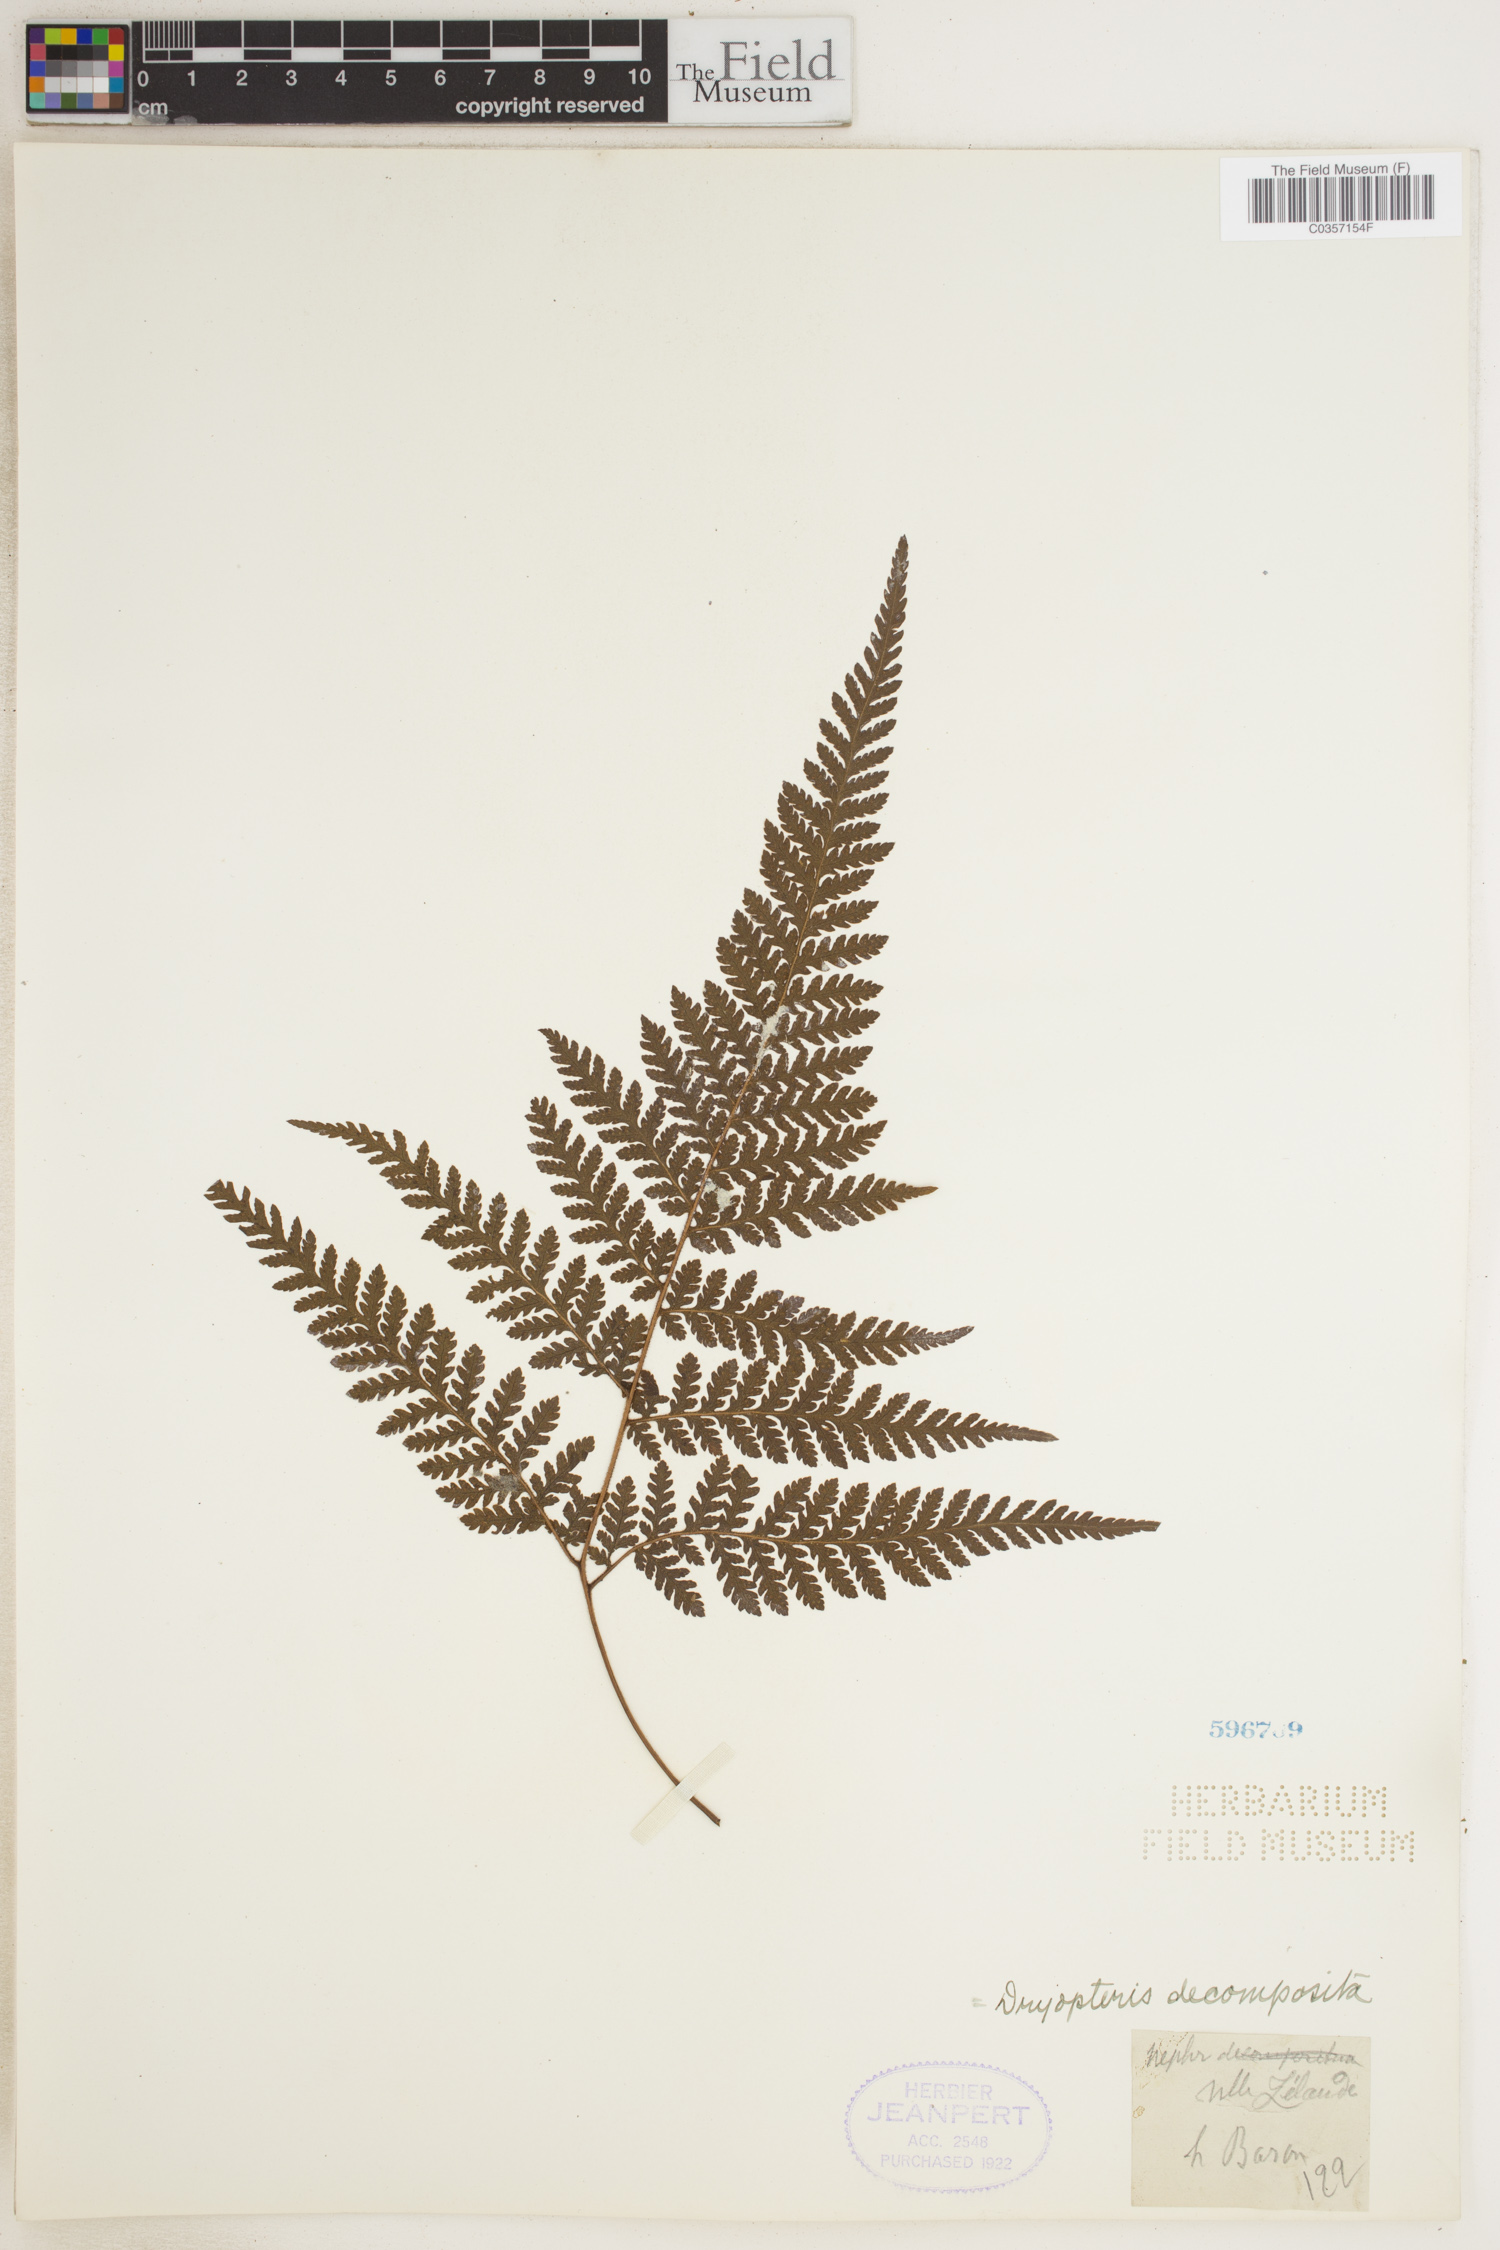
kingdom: Plantae
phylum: Tracheophyta
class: Polypodiopsida
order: Polypodiales
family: Dryopteridaceae
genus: Lastreopsis
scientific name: Lastreopsis decomposita
